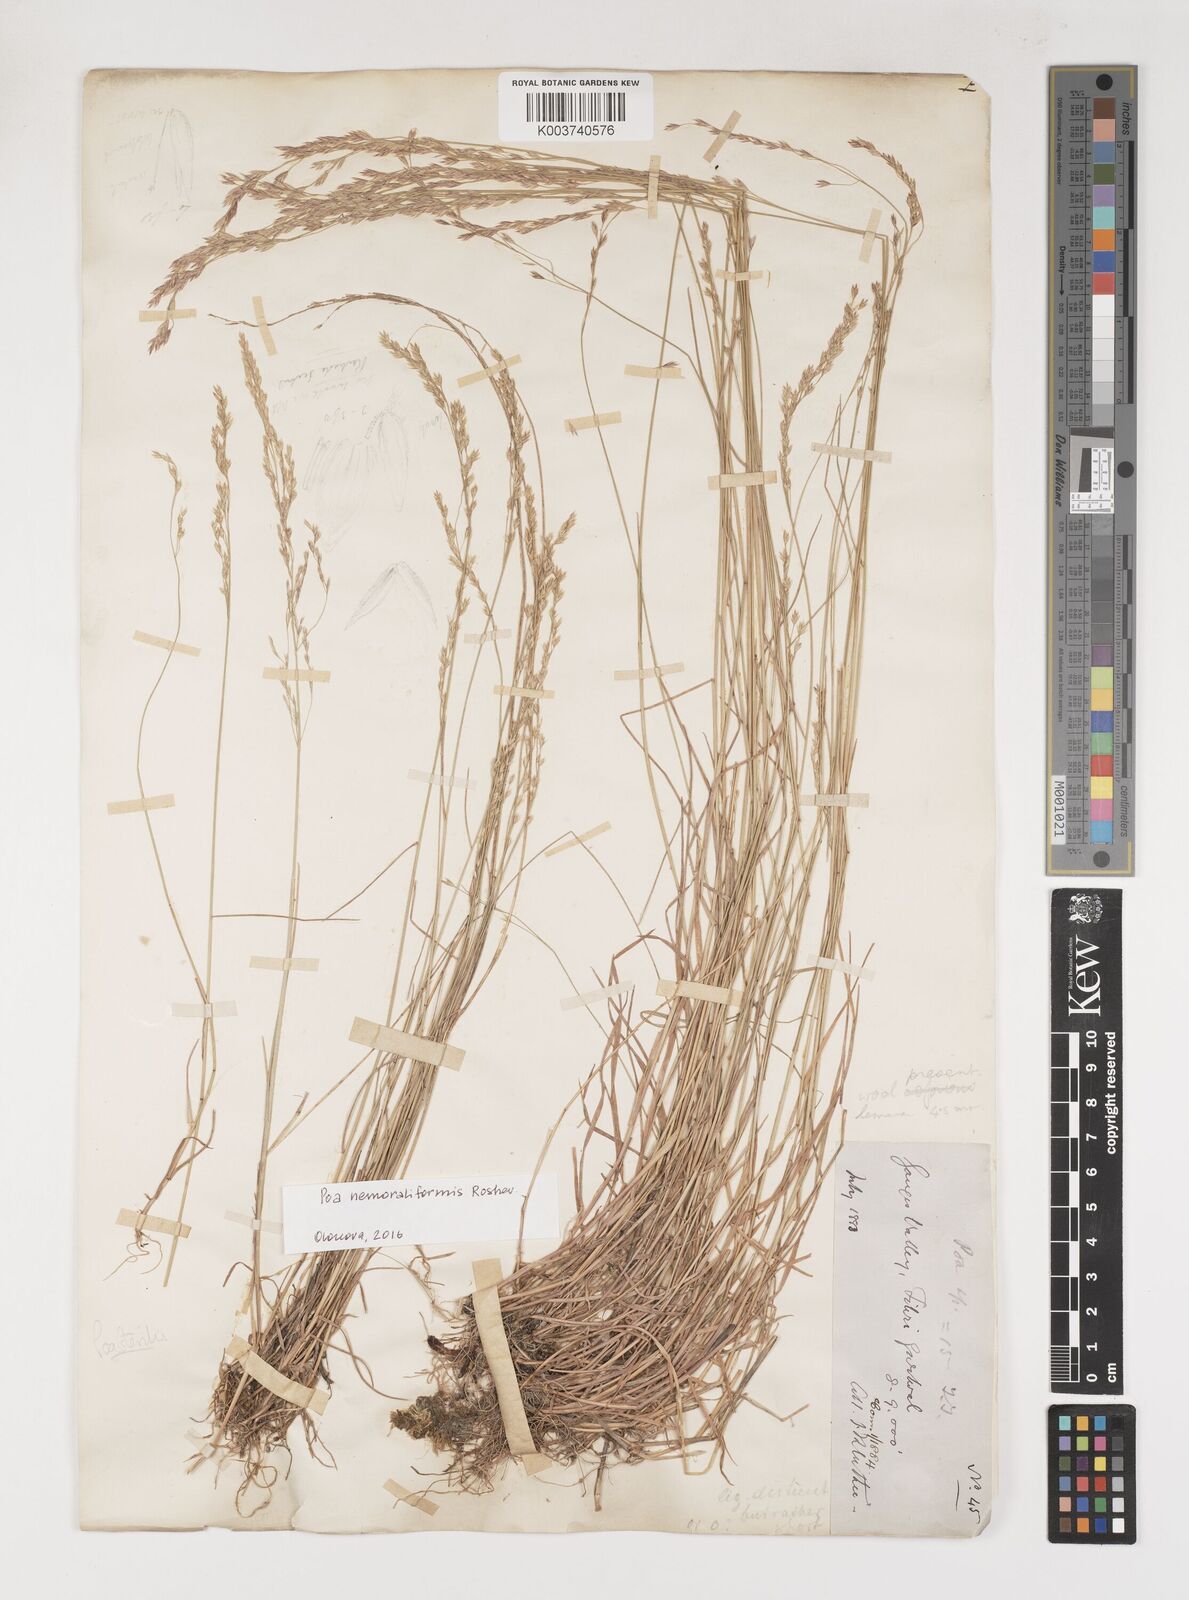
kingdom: Plantae
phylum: Tracheophyta
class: Liliopsida
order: Poales
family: Poaceae
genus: Poa
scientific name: Poa sterilis
